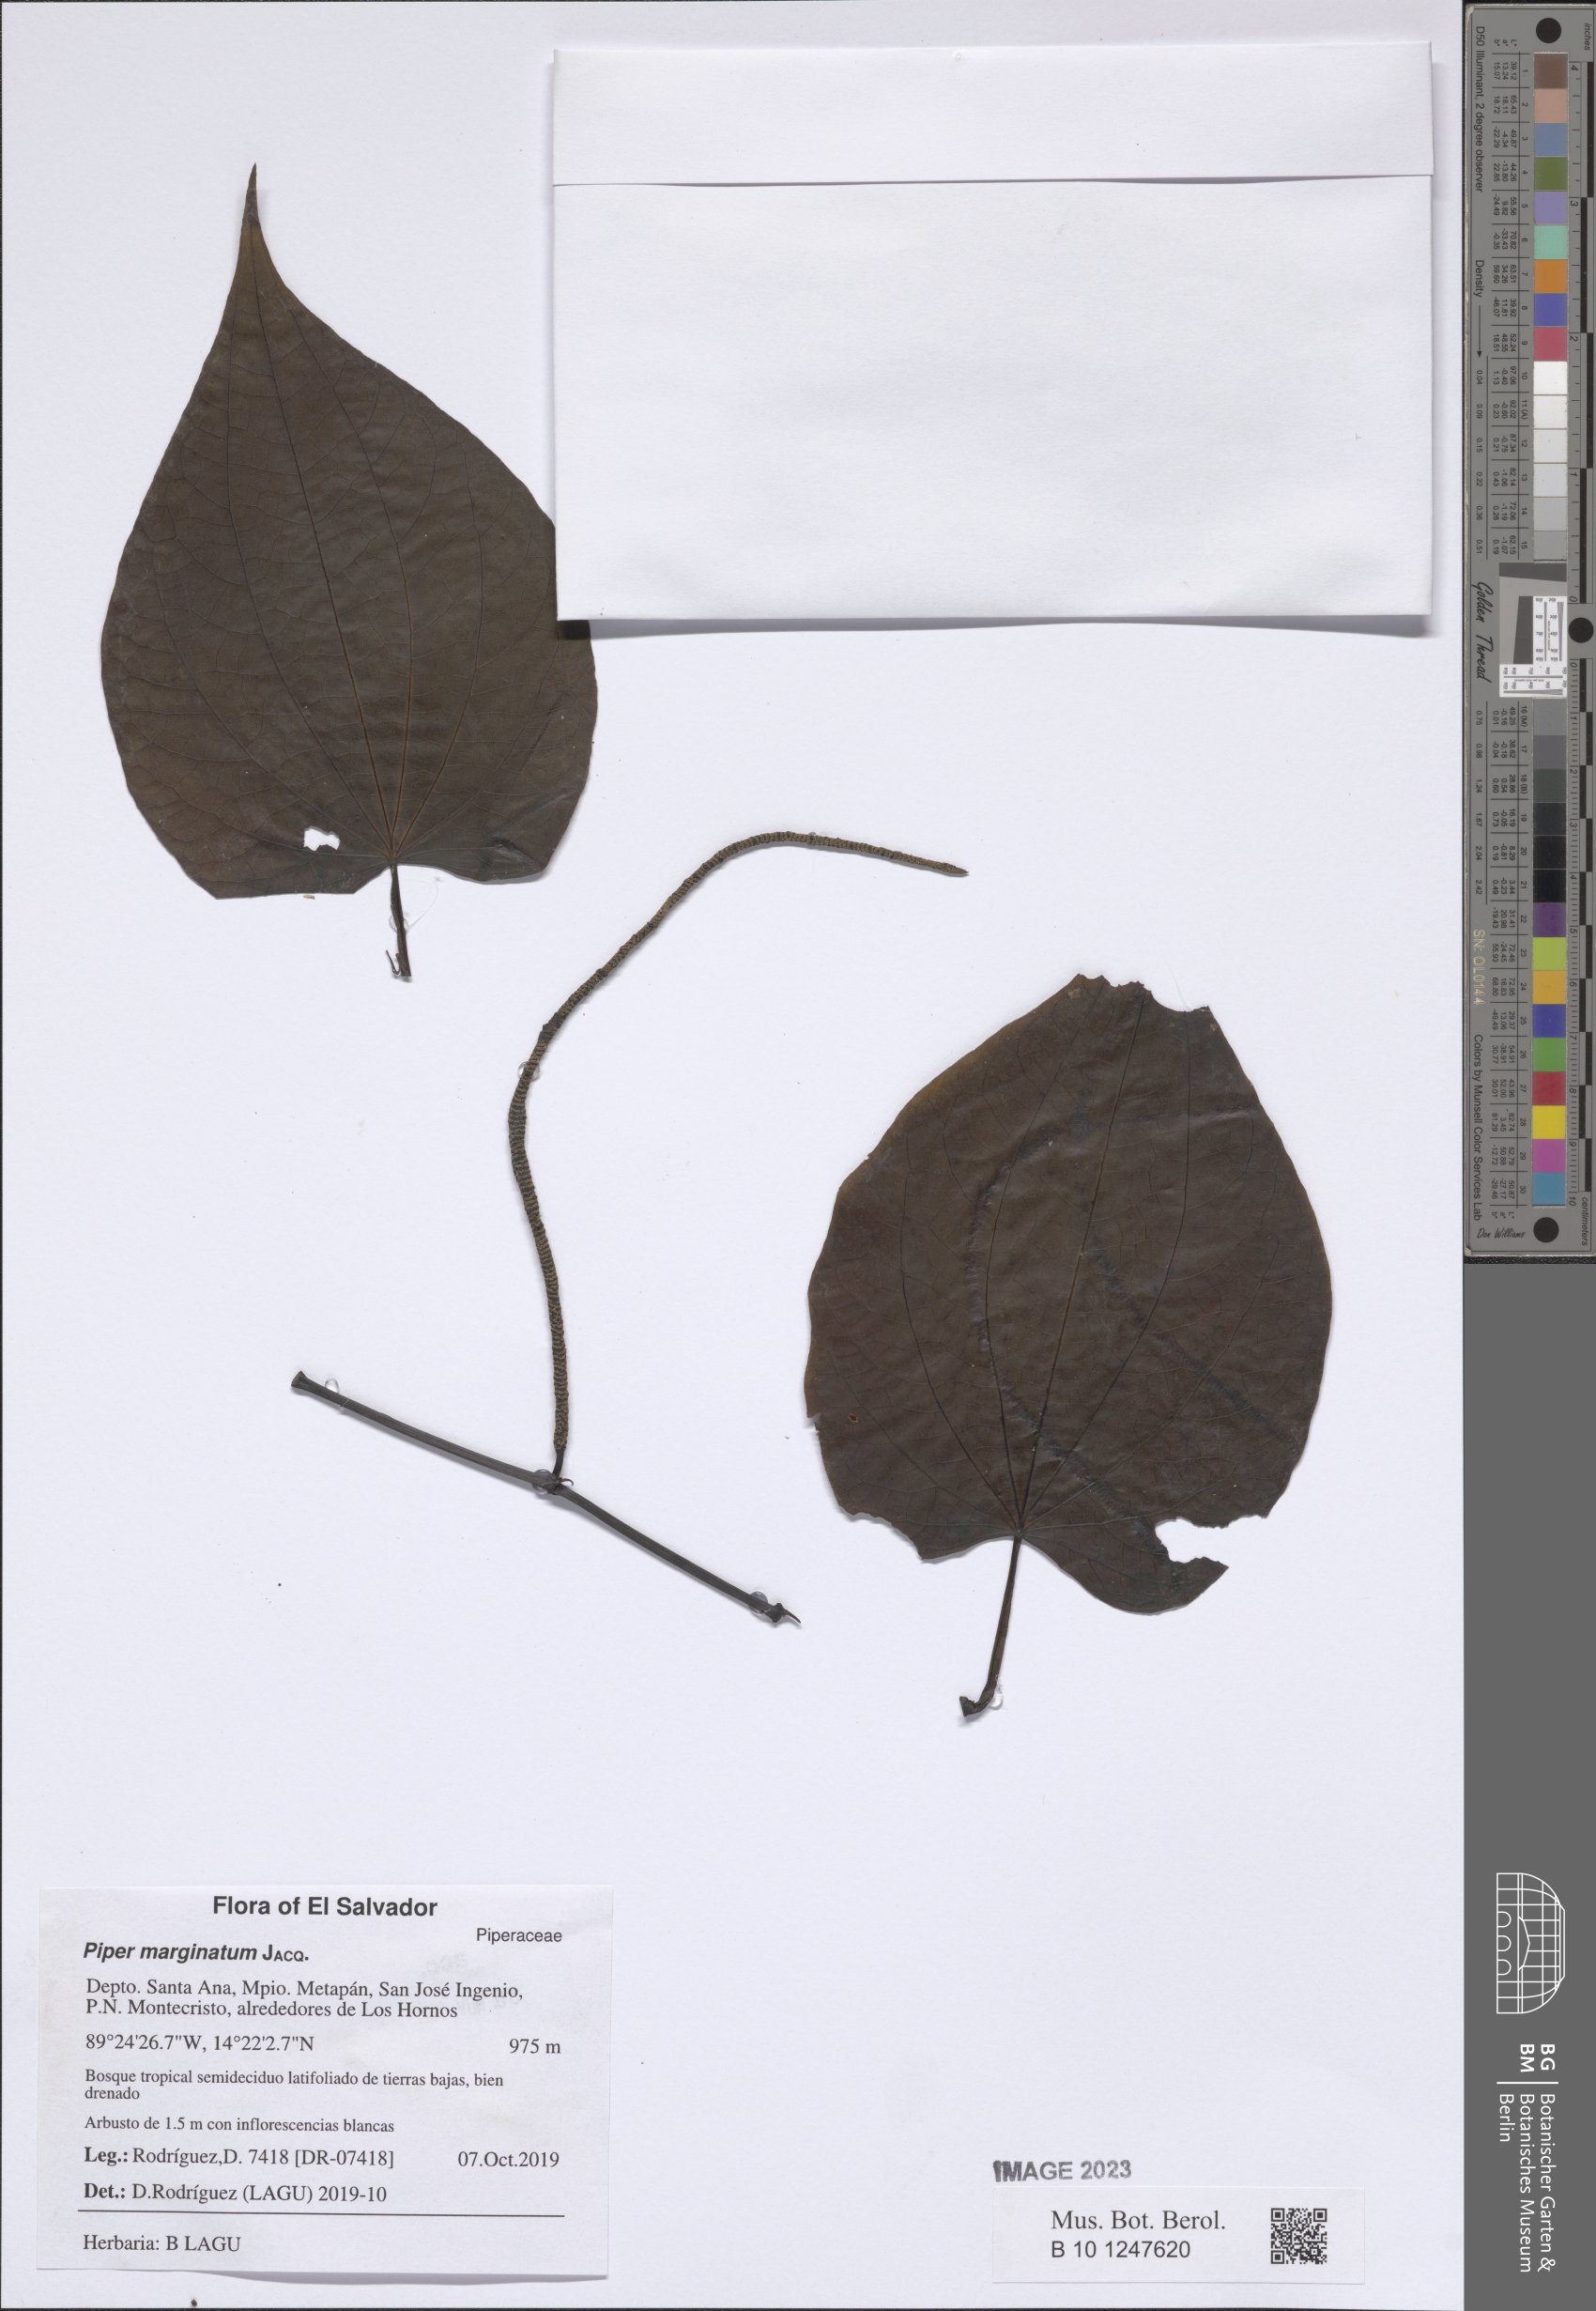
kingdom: Plantae
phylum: Tracheophyta
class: Magnoliopsida
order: Piperales
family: Piperaceae
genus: Piper
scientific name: Piper marginatum
